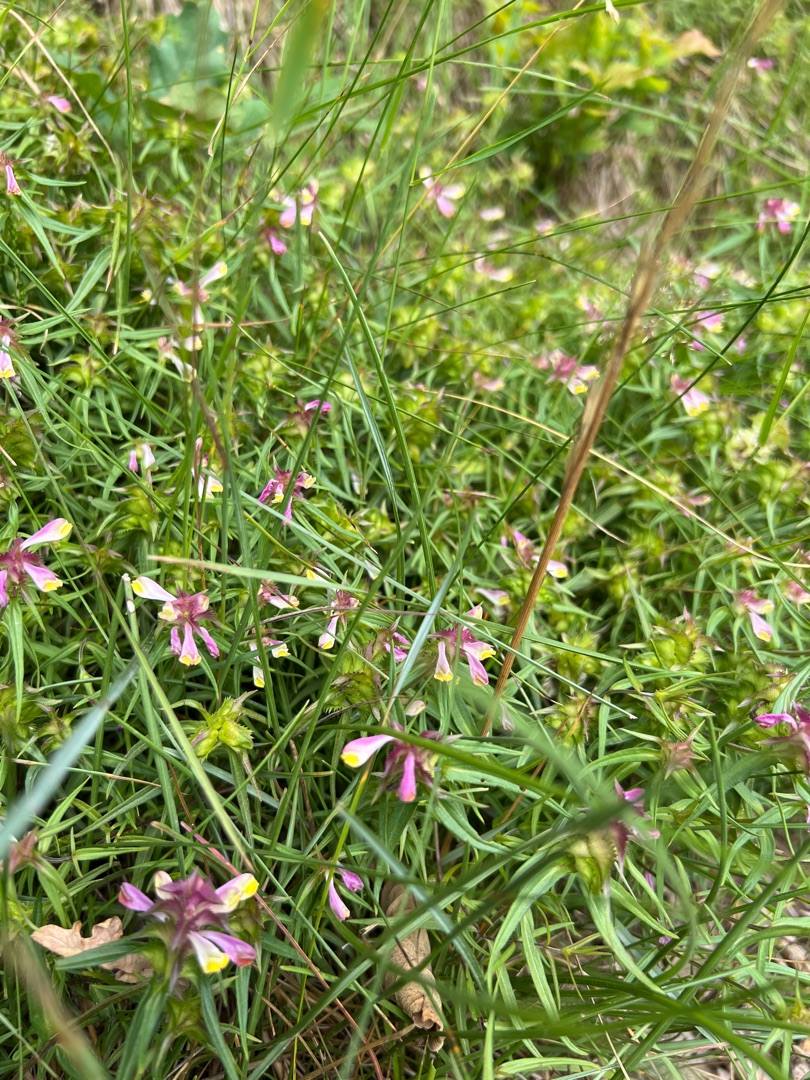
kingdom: Plantae
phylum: Tracheophyta
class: Magnoliopsida
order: Lamiales
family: Orobanchaceae
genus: Melampyrum
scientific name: Melampyrum cristatum
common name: Kantet kohvede
